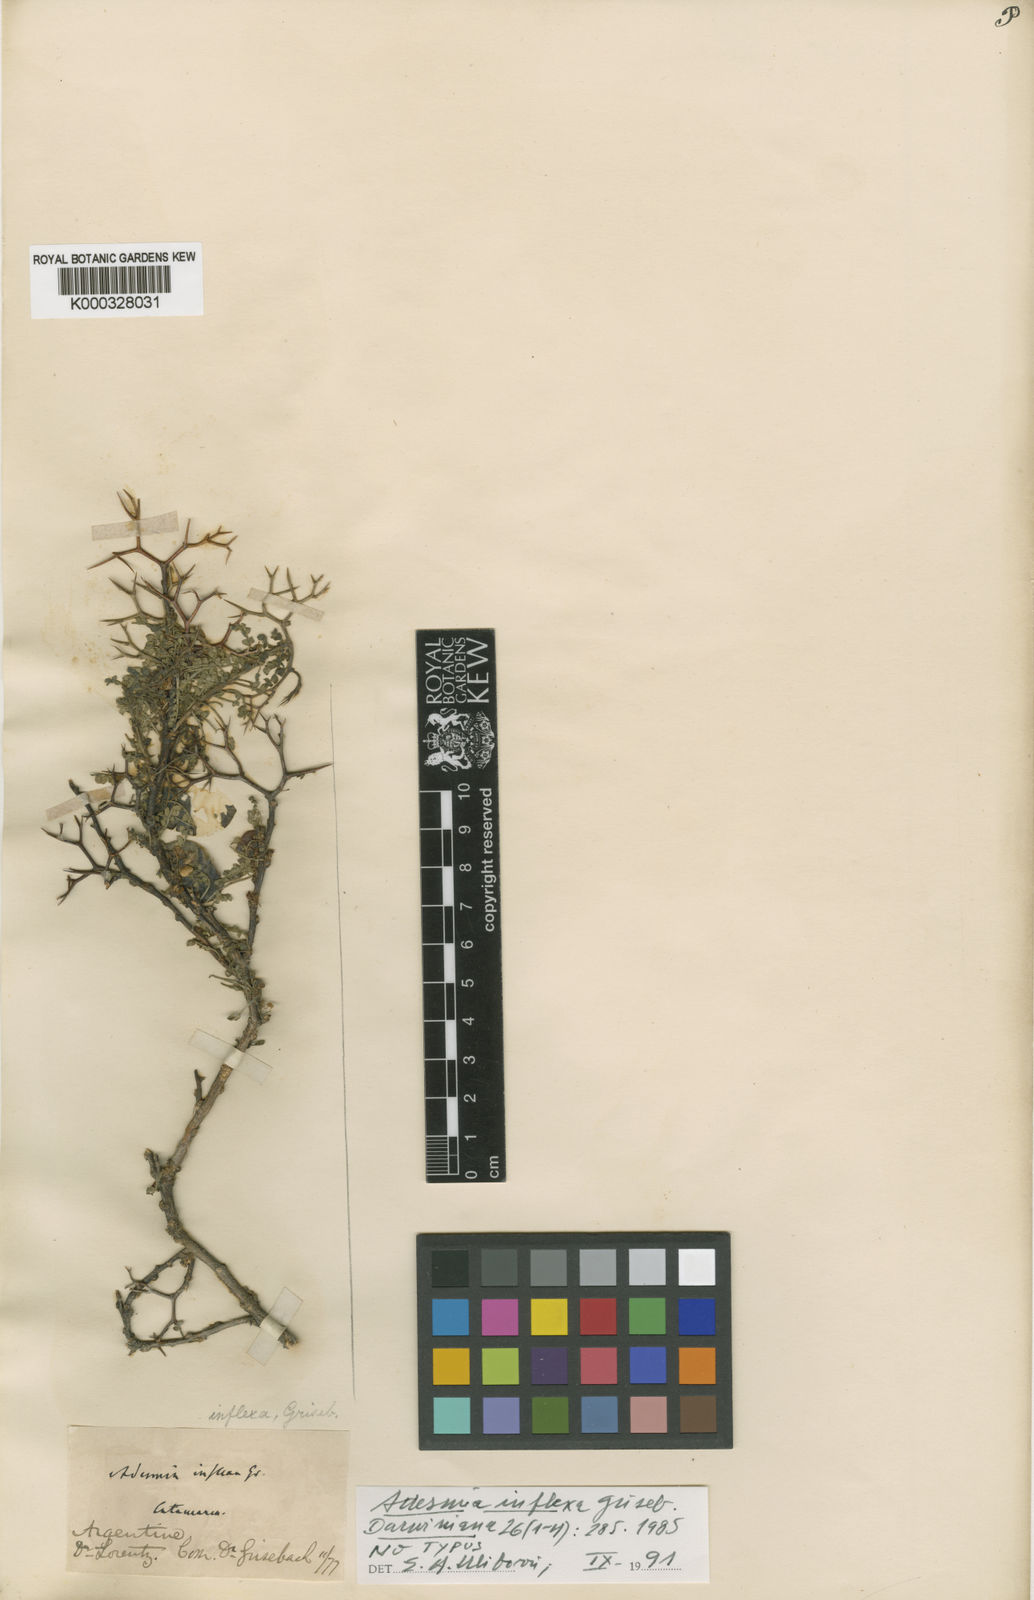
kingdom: Plantae
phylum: Tracheophyta
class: Magnoliopsida
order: Fabales
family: Fabaceae
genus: Adesmia
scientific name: Adesmia inflexa
